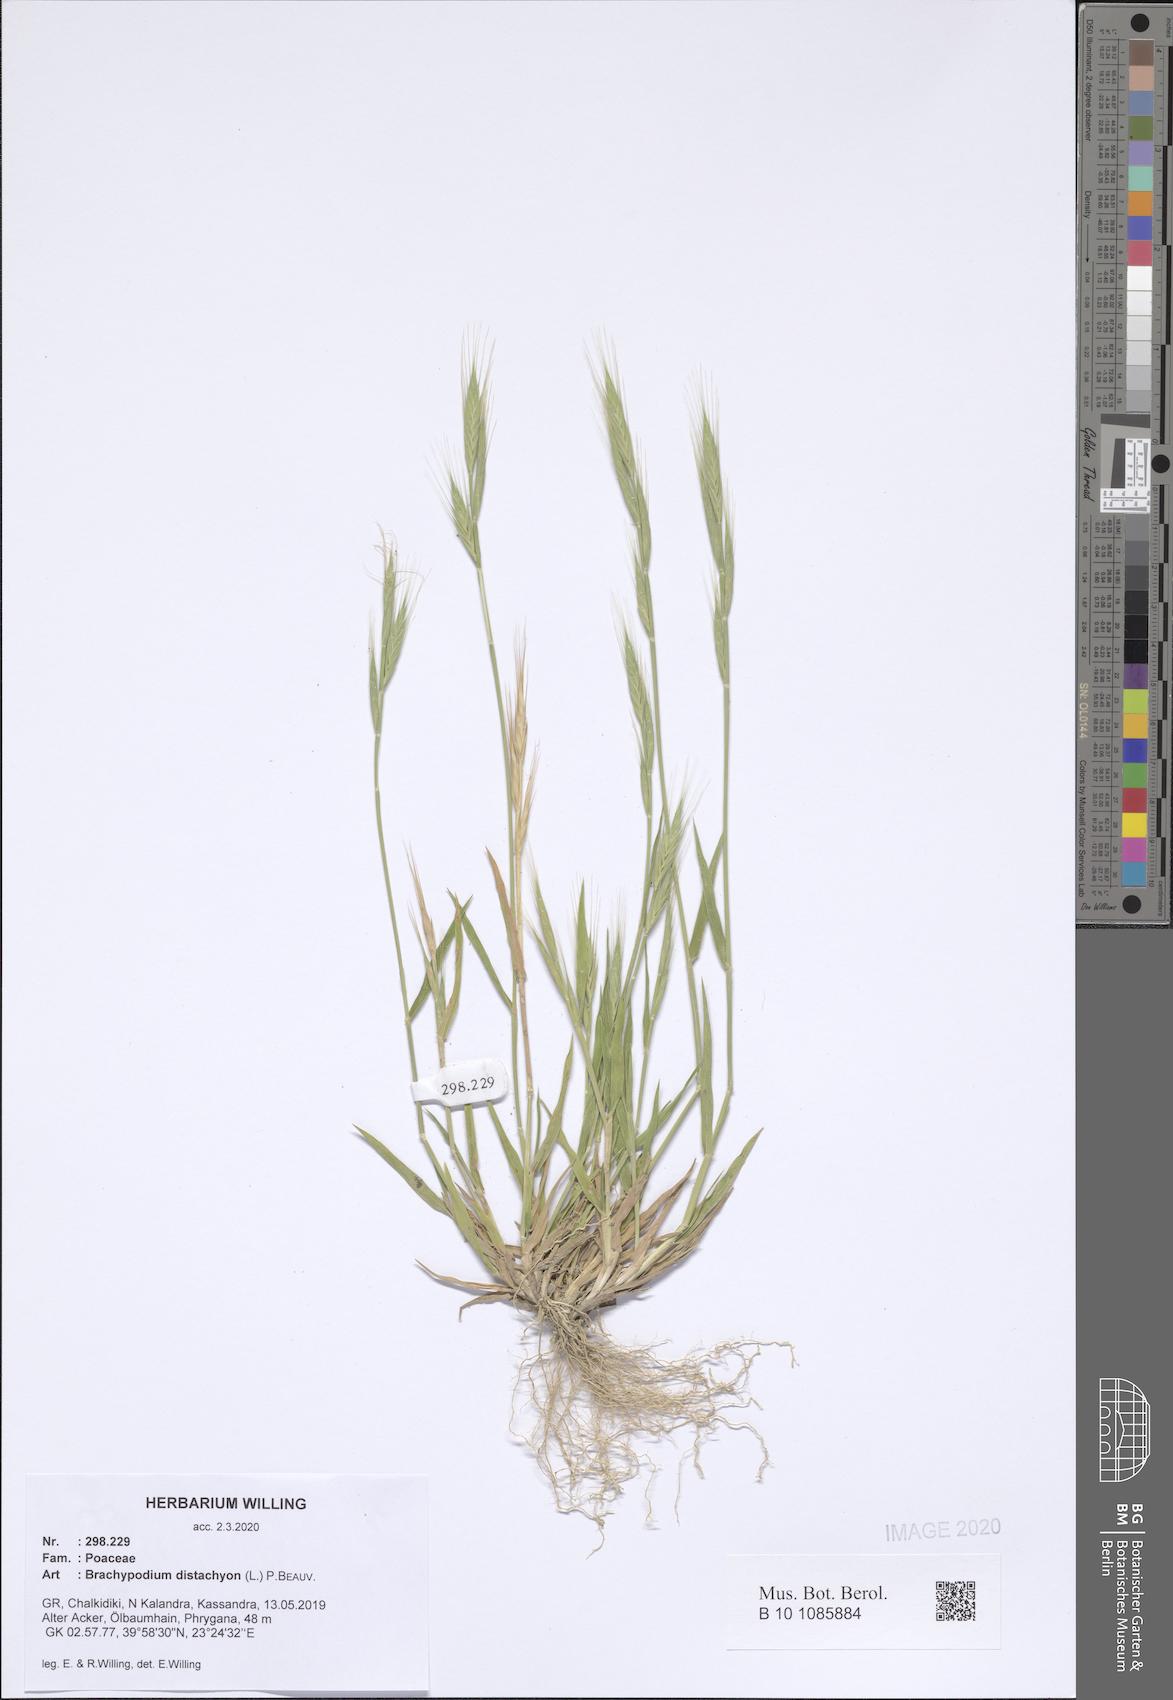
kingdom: Plantae
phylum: Tracheophyta
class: Liliopsida
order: Poales
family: Poaceae
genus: Brachypodium
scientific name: Brachypodium distachyon
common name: Stiff brome
